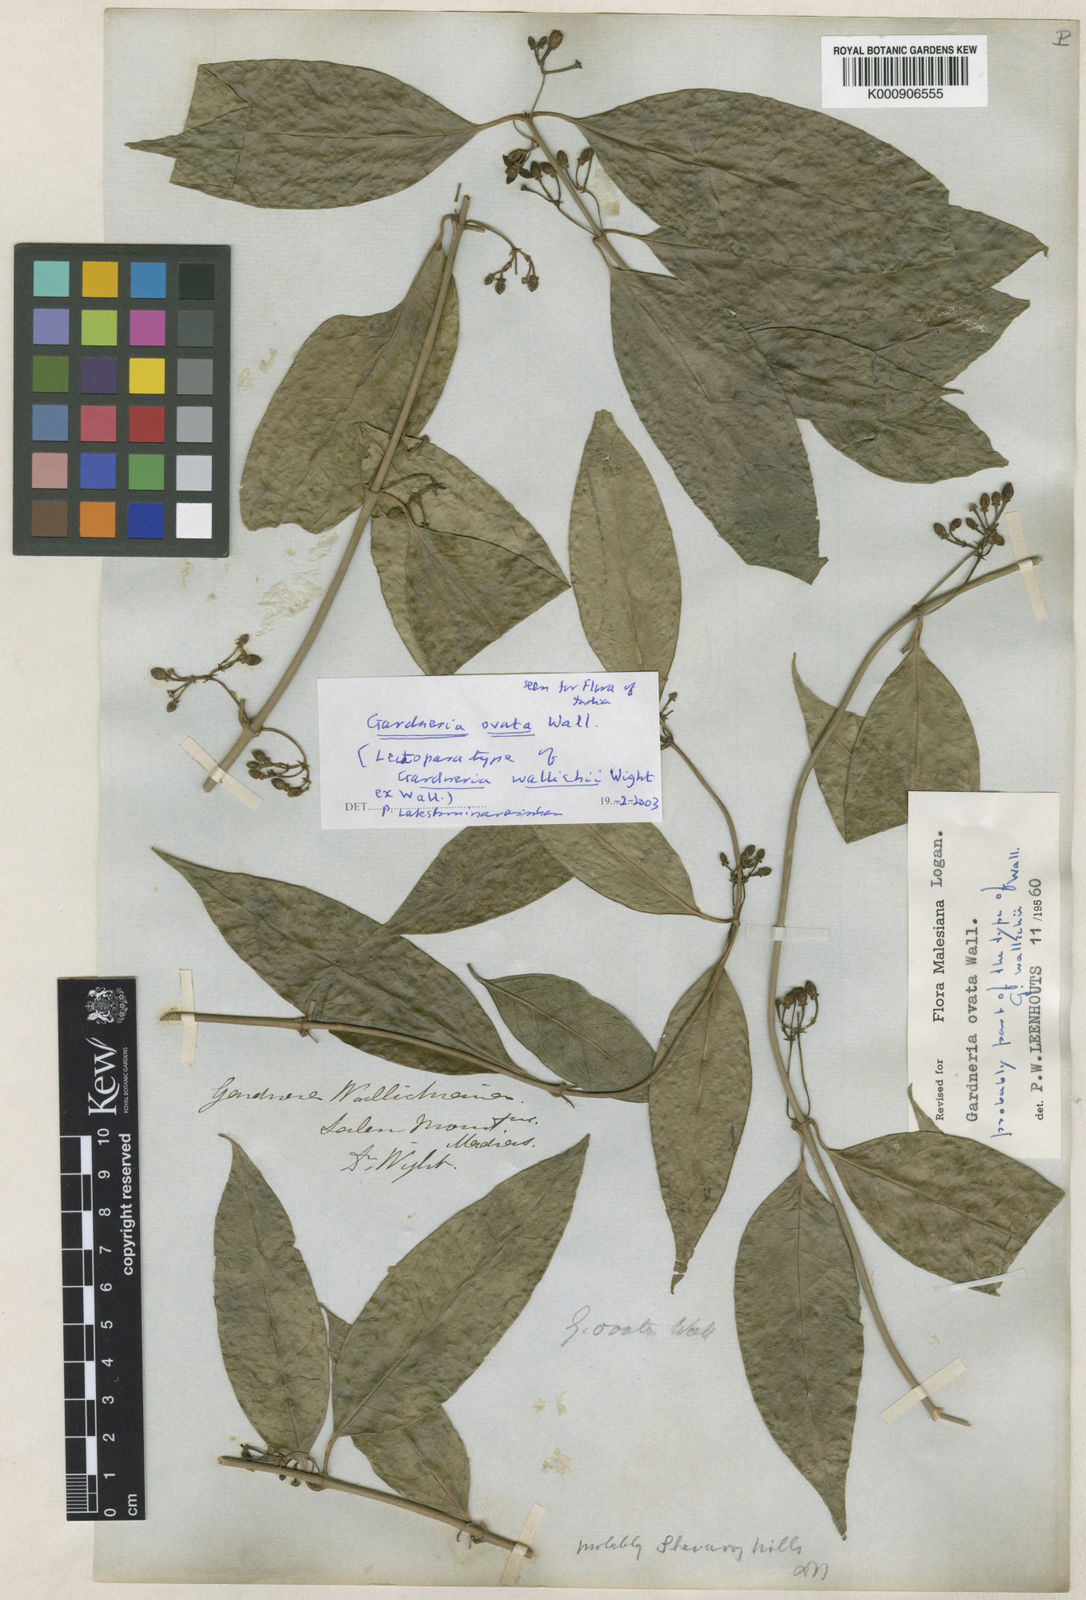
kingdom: Plantae
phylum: Tracheophyta
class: Magnoliopsida
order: Gentianales
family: Loganiaceae
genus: Gardneria
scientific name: Gardneria ovata
